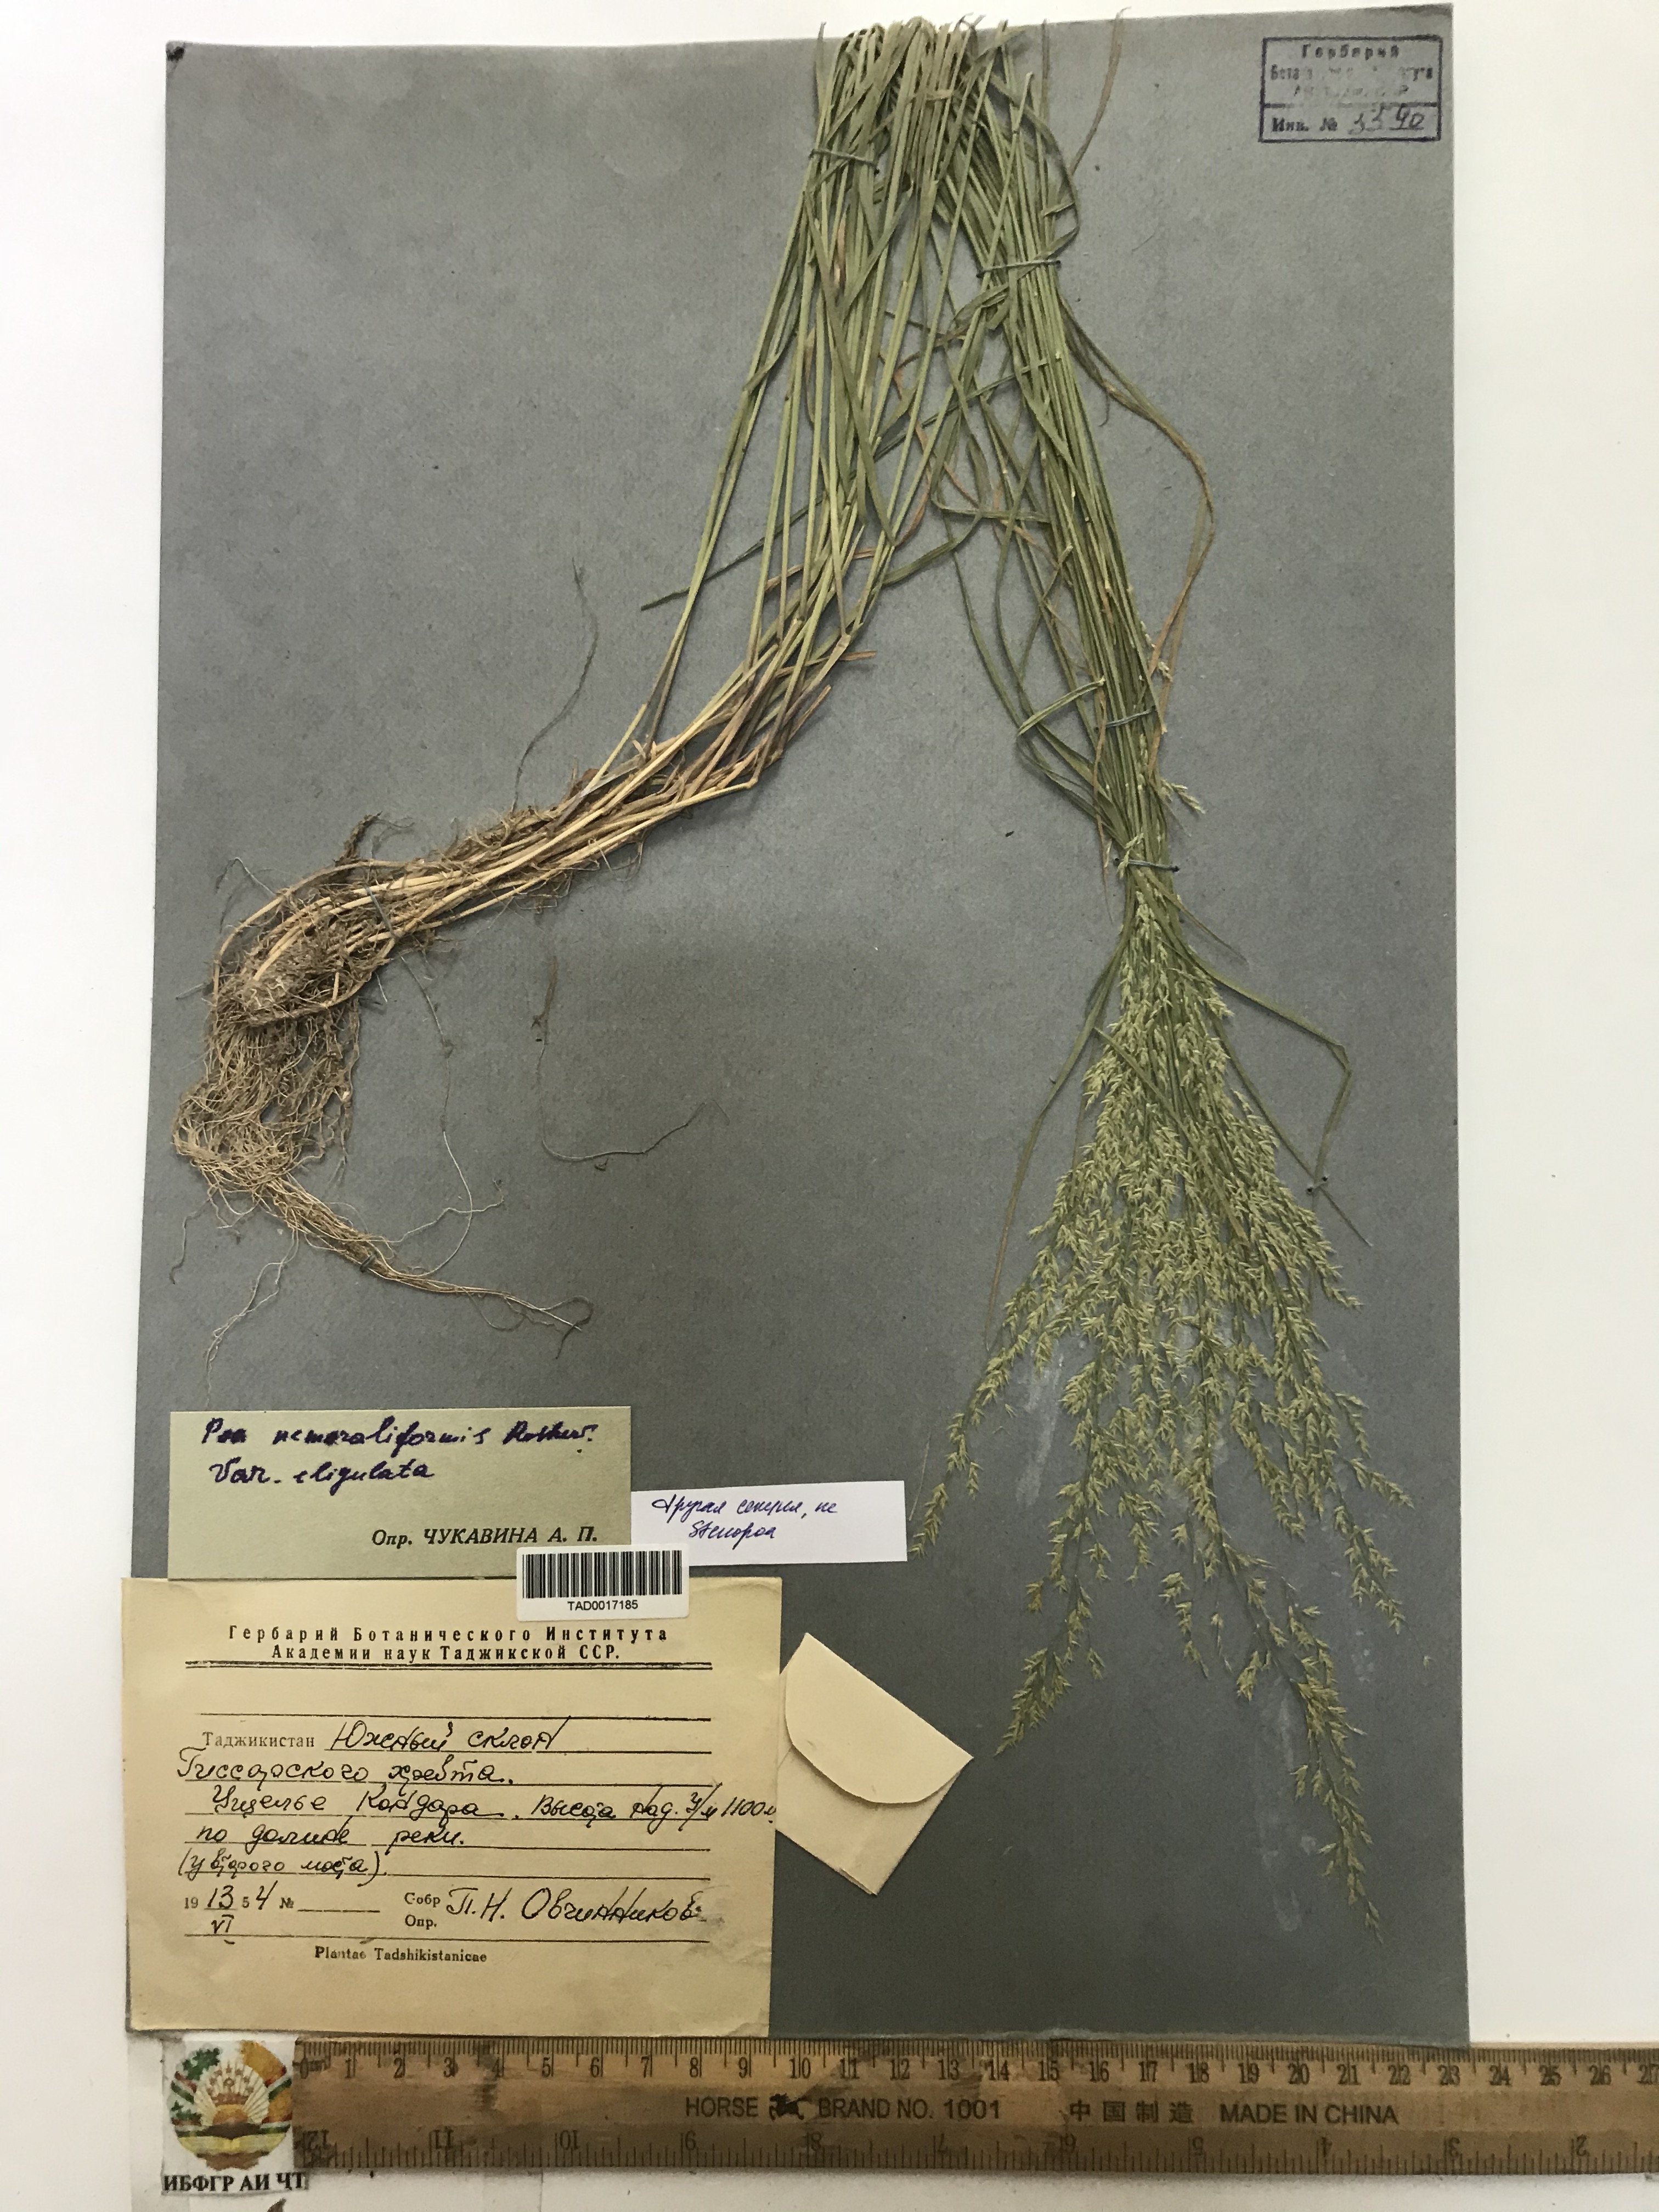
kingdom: Plantae
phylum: Tracheophyta
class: Liliopsida
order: Poales
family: Poaceae
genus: Poa
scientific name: Poa urssulensis
